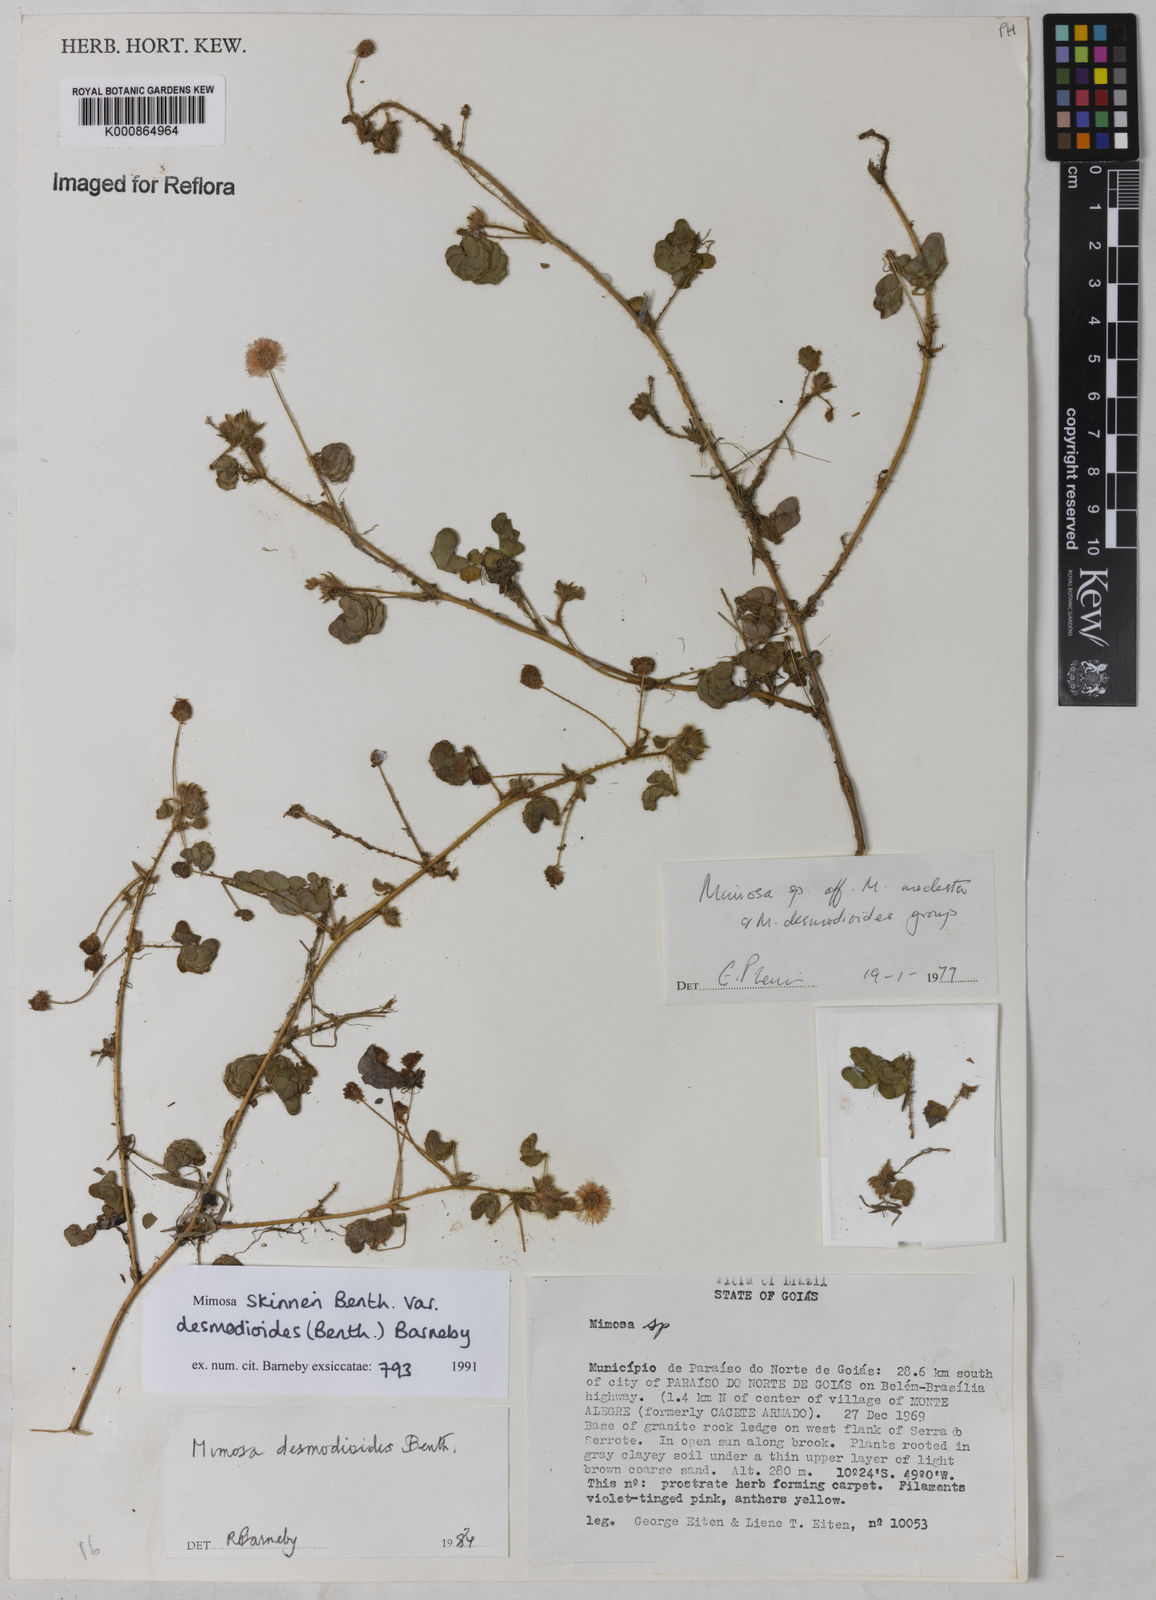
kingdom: Plantae
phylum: Tracheophyta
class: Magnoliopsida
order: Fabales
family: Fabaceae
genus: Mimosa
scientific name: Mimosa skinneri
